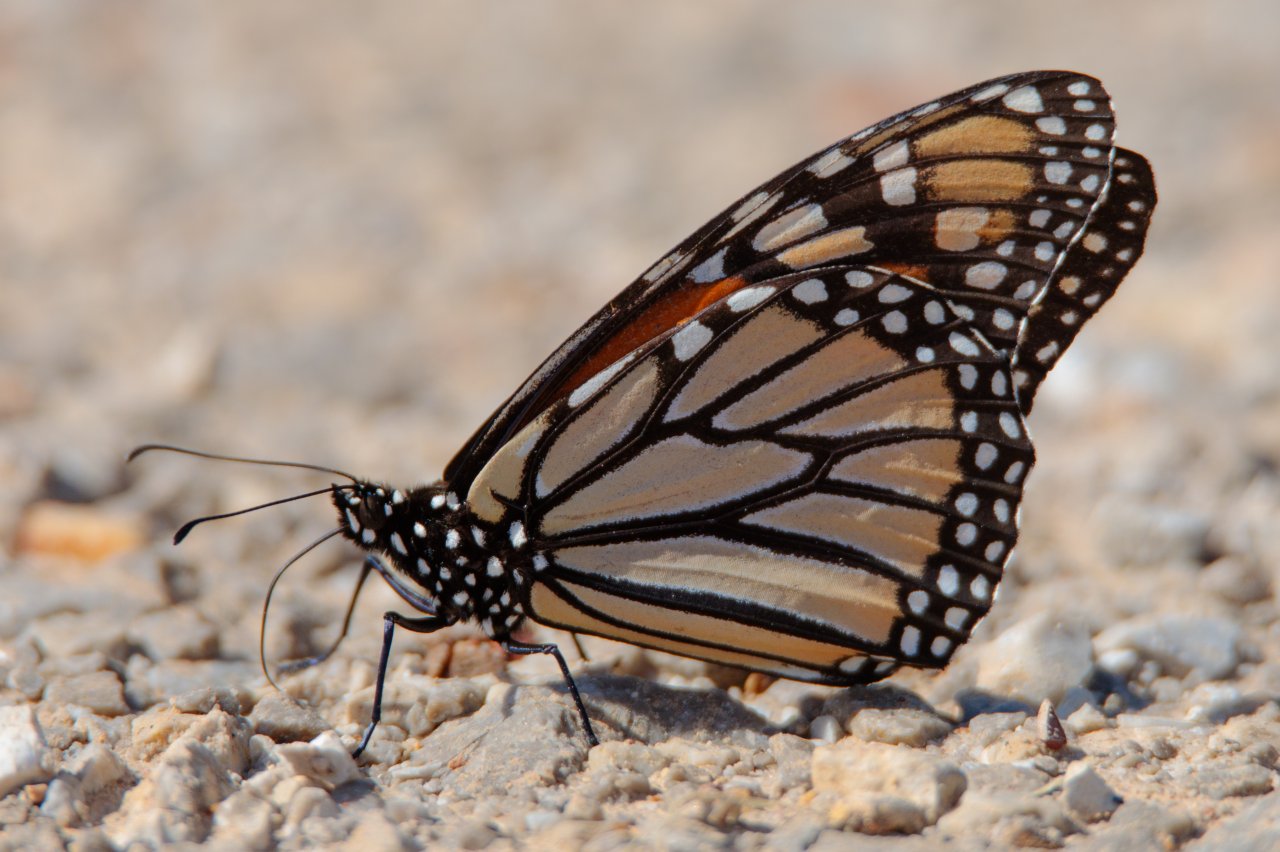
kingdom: Animalia
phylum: Arthropoda
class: Insecta
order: Lepidoptera
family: Nymphalidae
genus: Danaus
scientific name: Danaus plexippus
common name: Monarch
